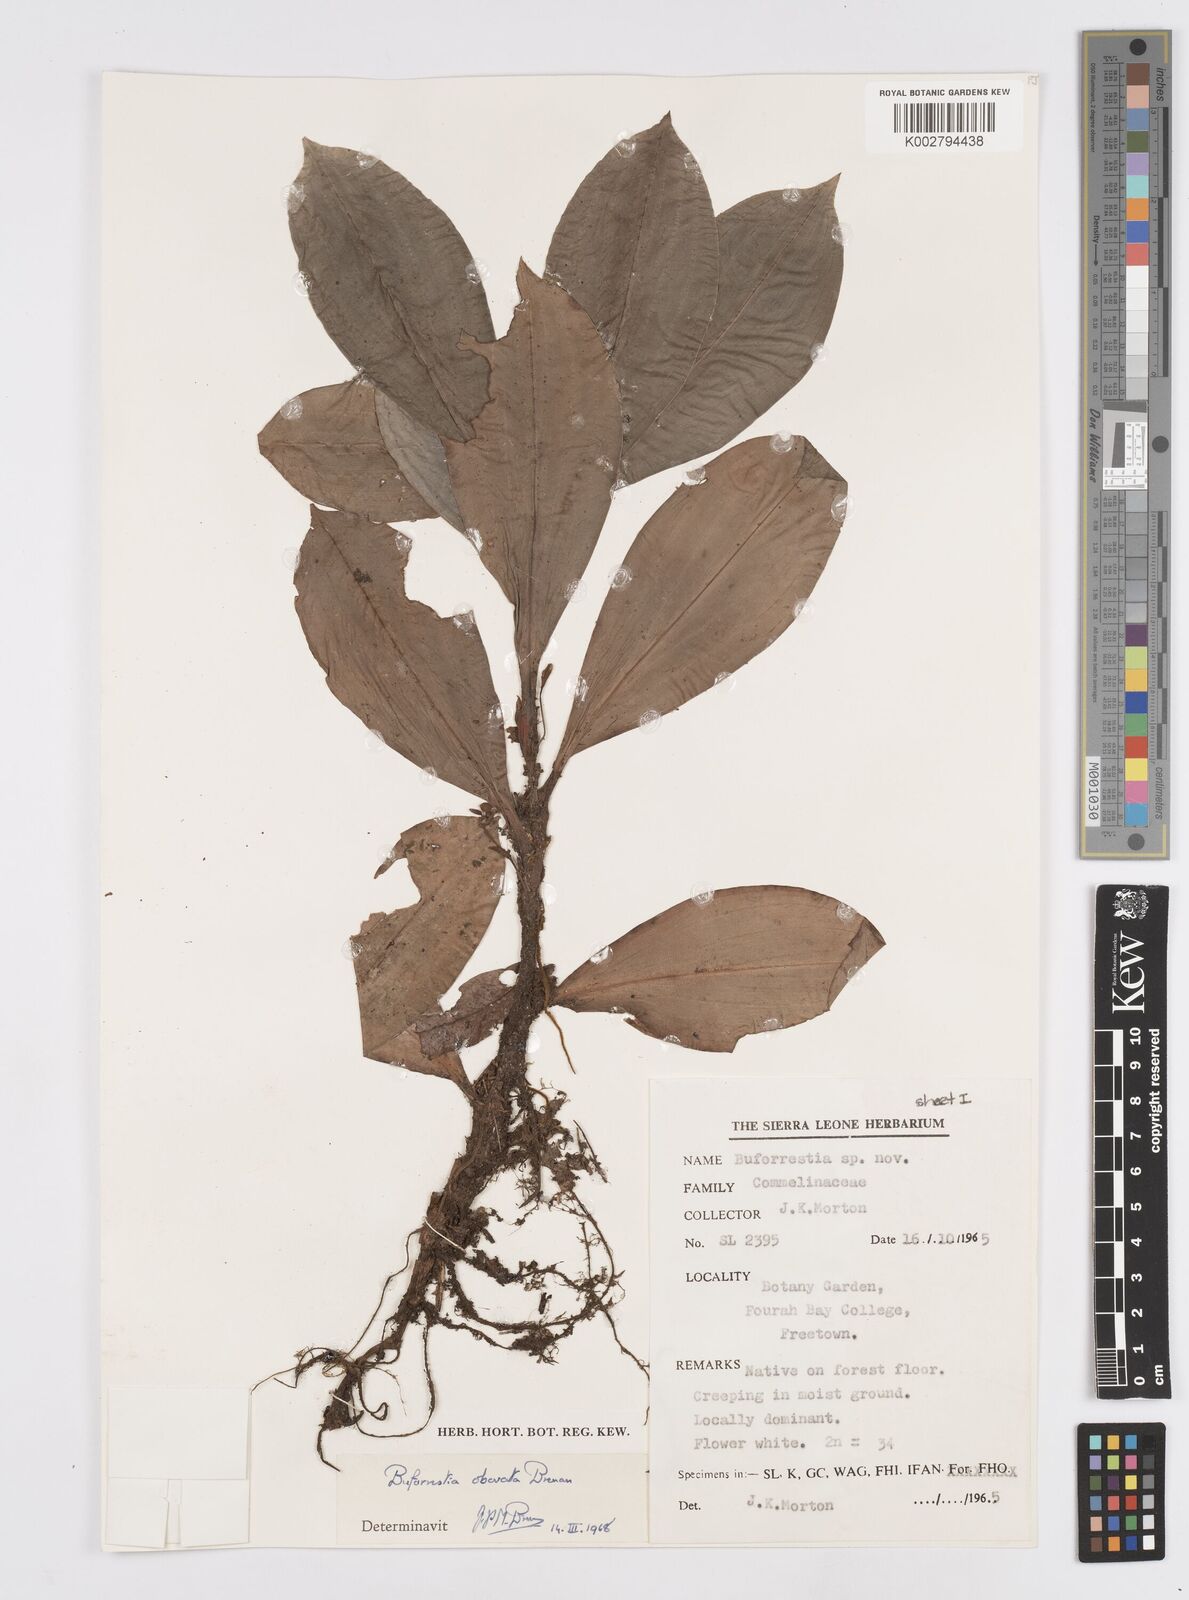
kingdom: Plantae
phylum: Tracheophyta
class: Liliopsida
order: Commelinales
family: Commelinaceae
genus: Buforrestia
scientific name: Buforrestia obovata
